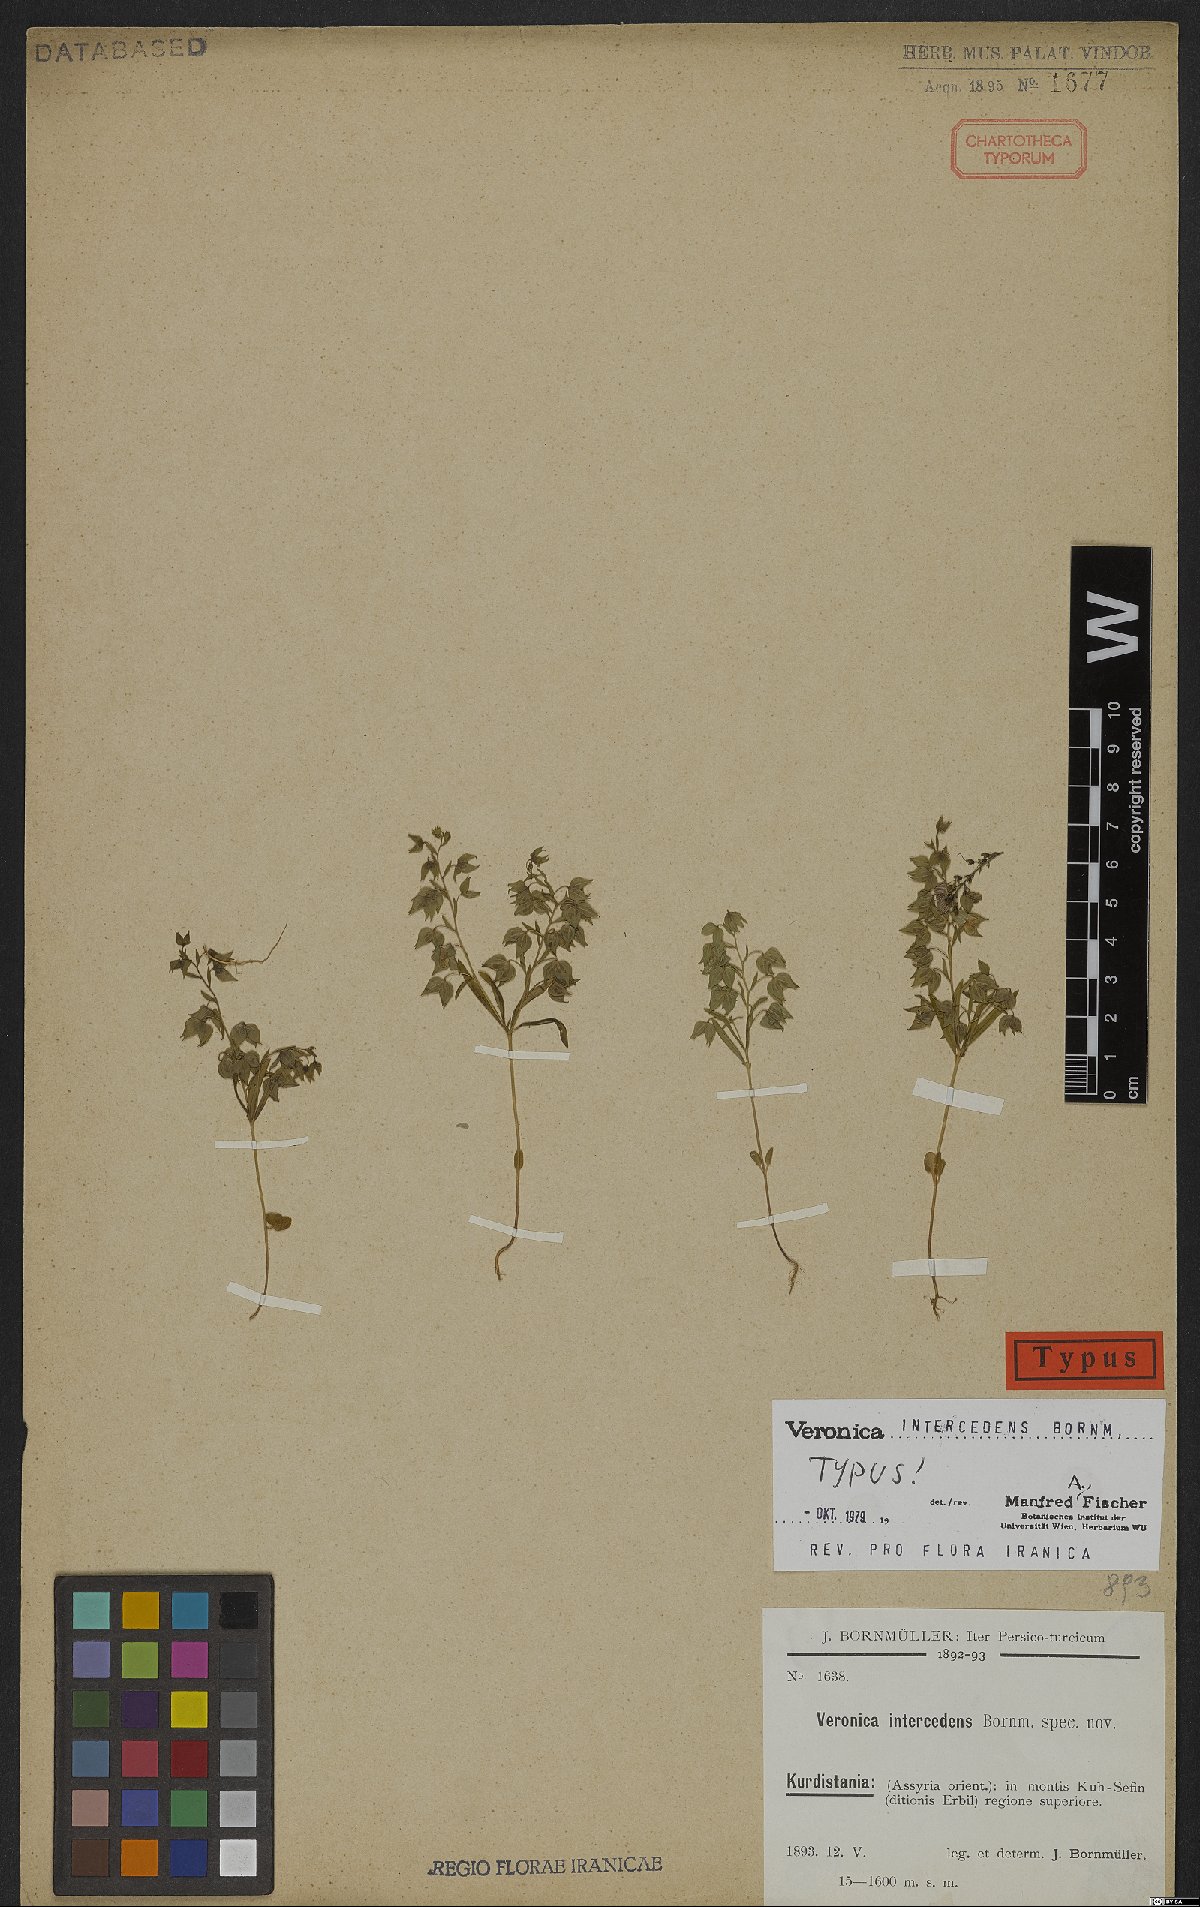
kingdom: Plantae
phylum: Tracheophyta
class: Magnoliopsida
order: Lamiales
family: Plantaginaceae
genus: Veronica
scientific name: Veronica intercedens
